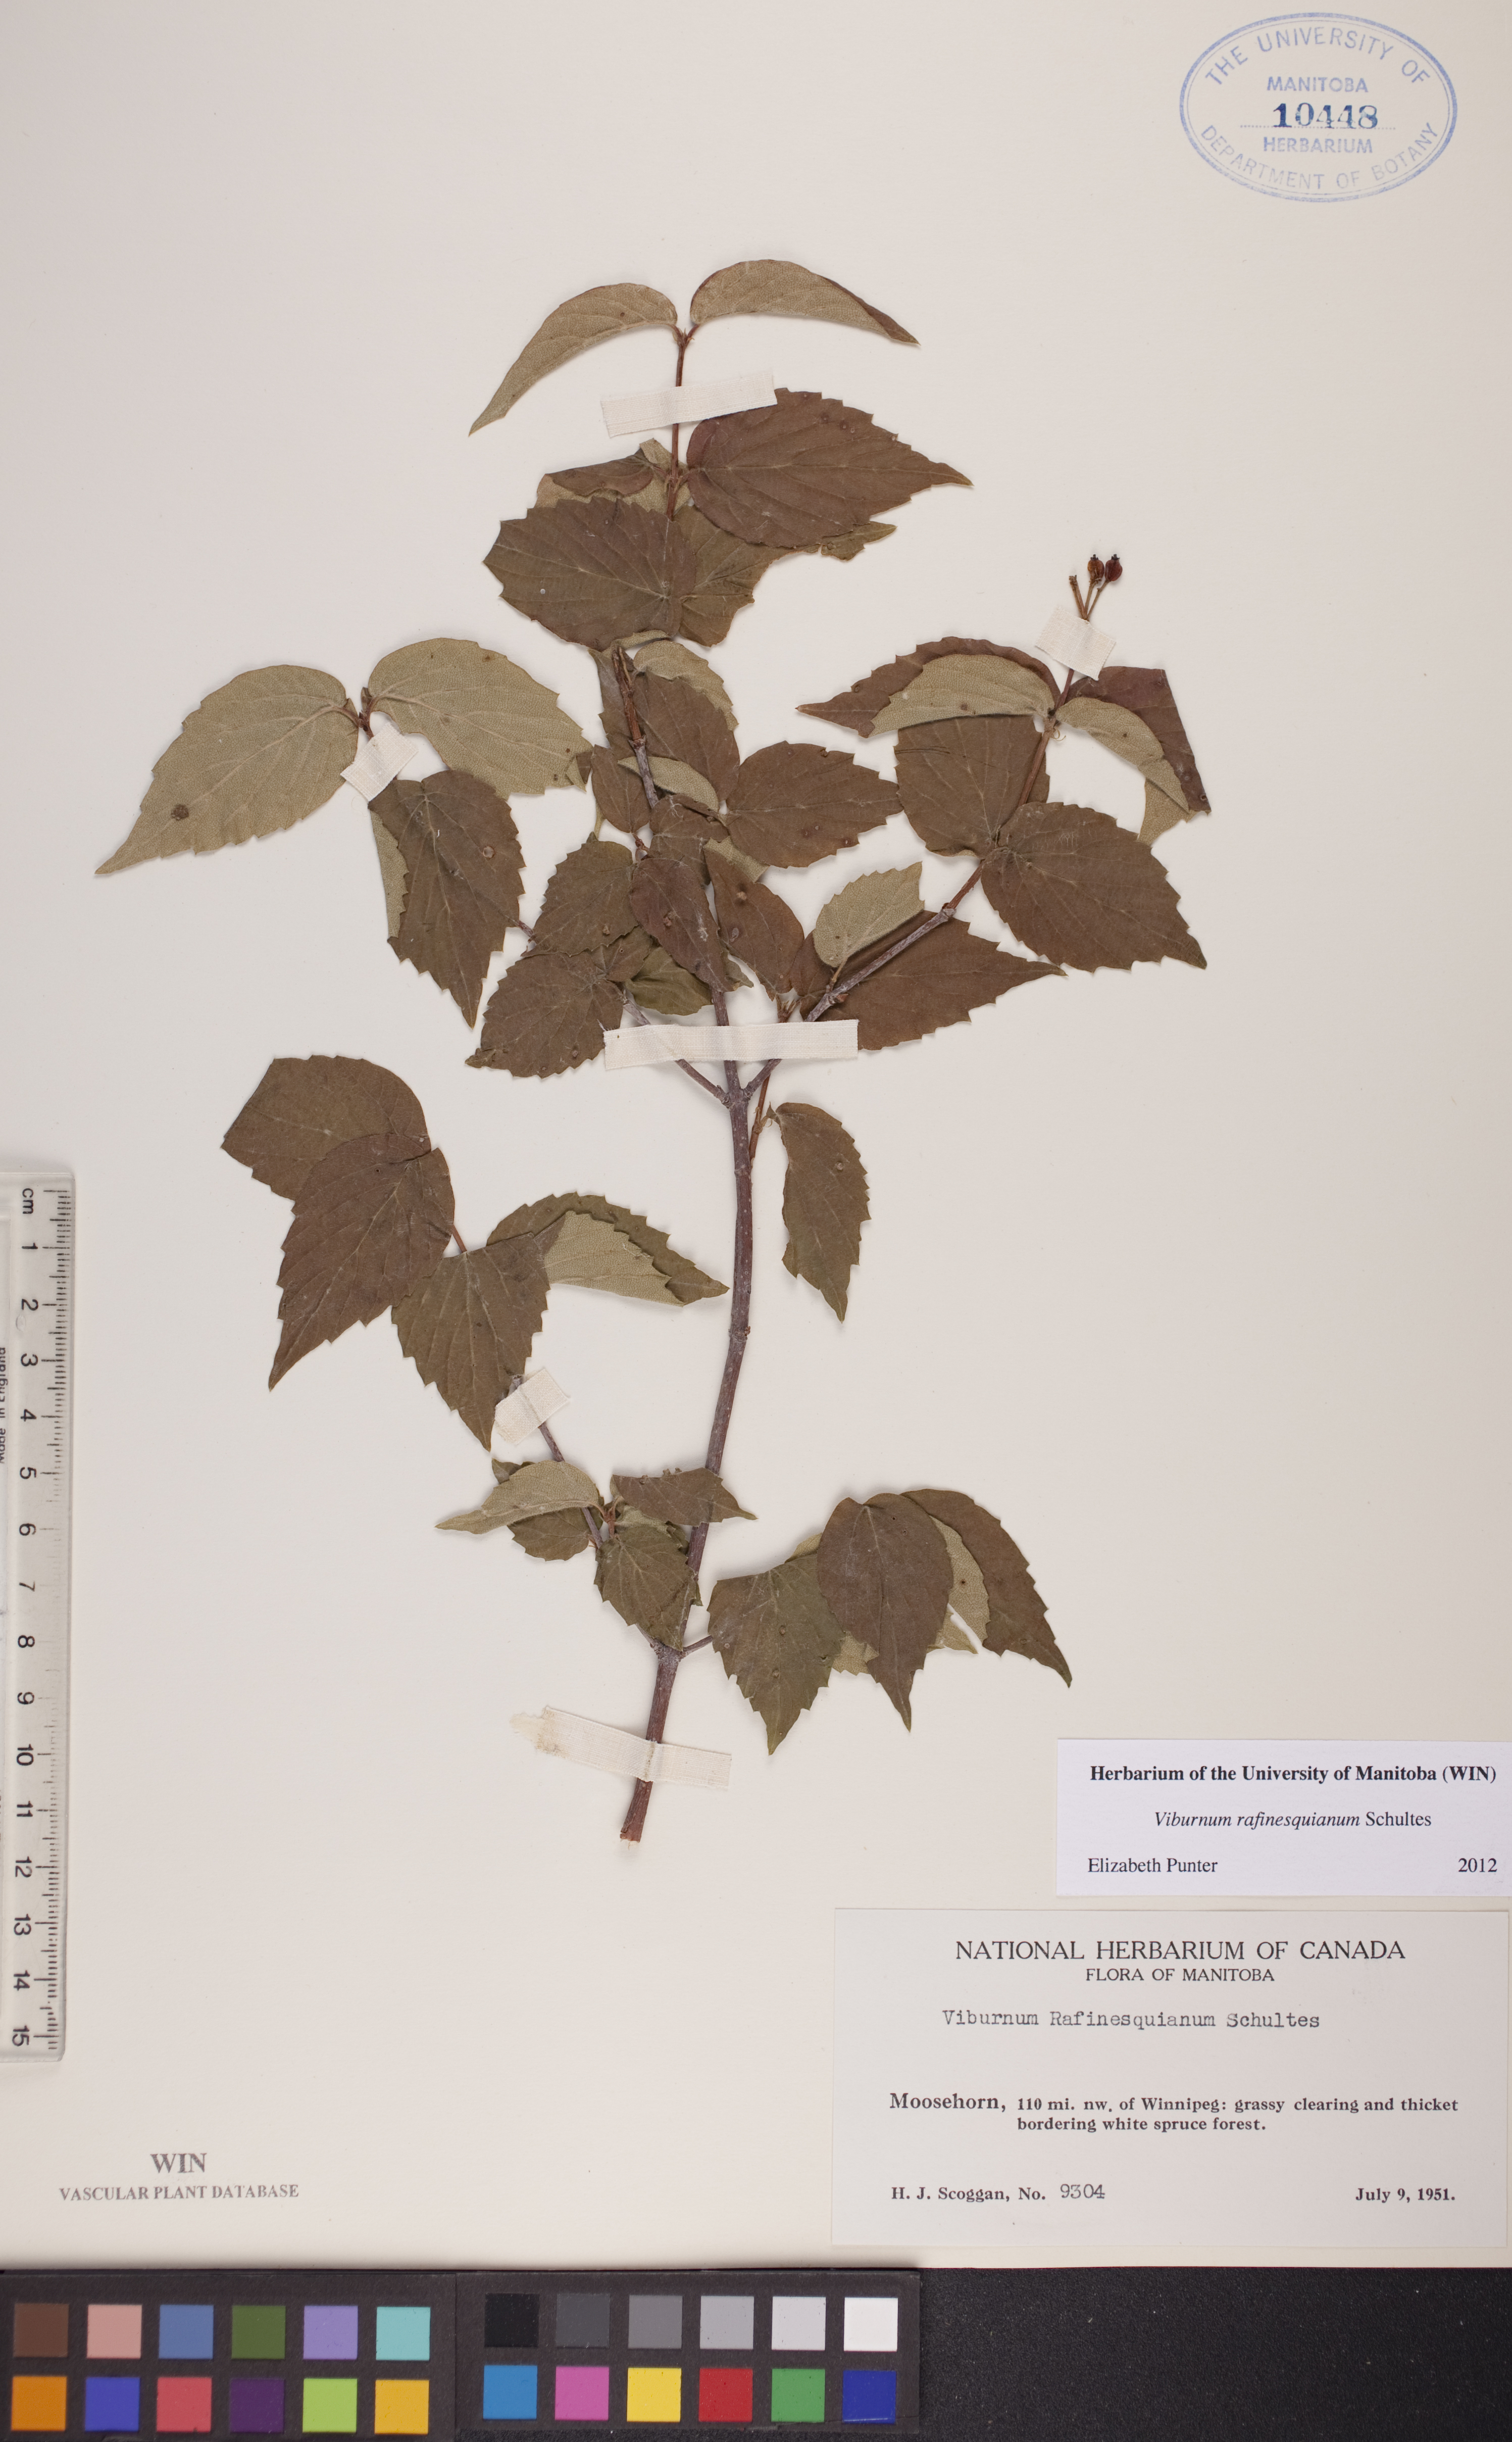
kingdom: Plantae
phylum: Tracheophyta
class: Magnoliopsida
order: Dipsacales
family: Viburnaceae
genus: Viburnum
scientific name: Viburnum rafinesquianum
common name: Downy arrow-wood
